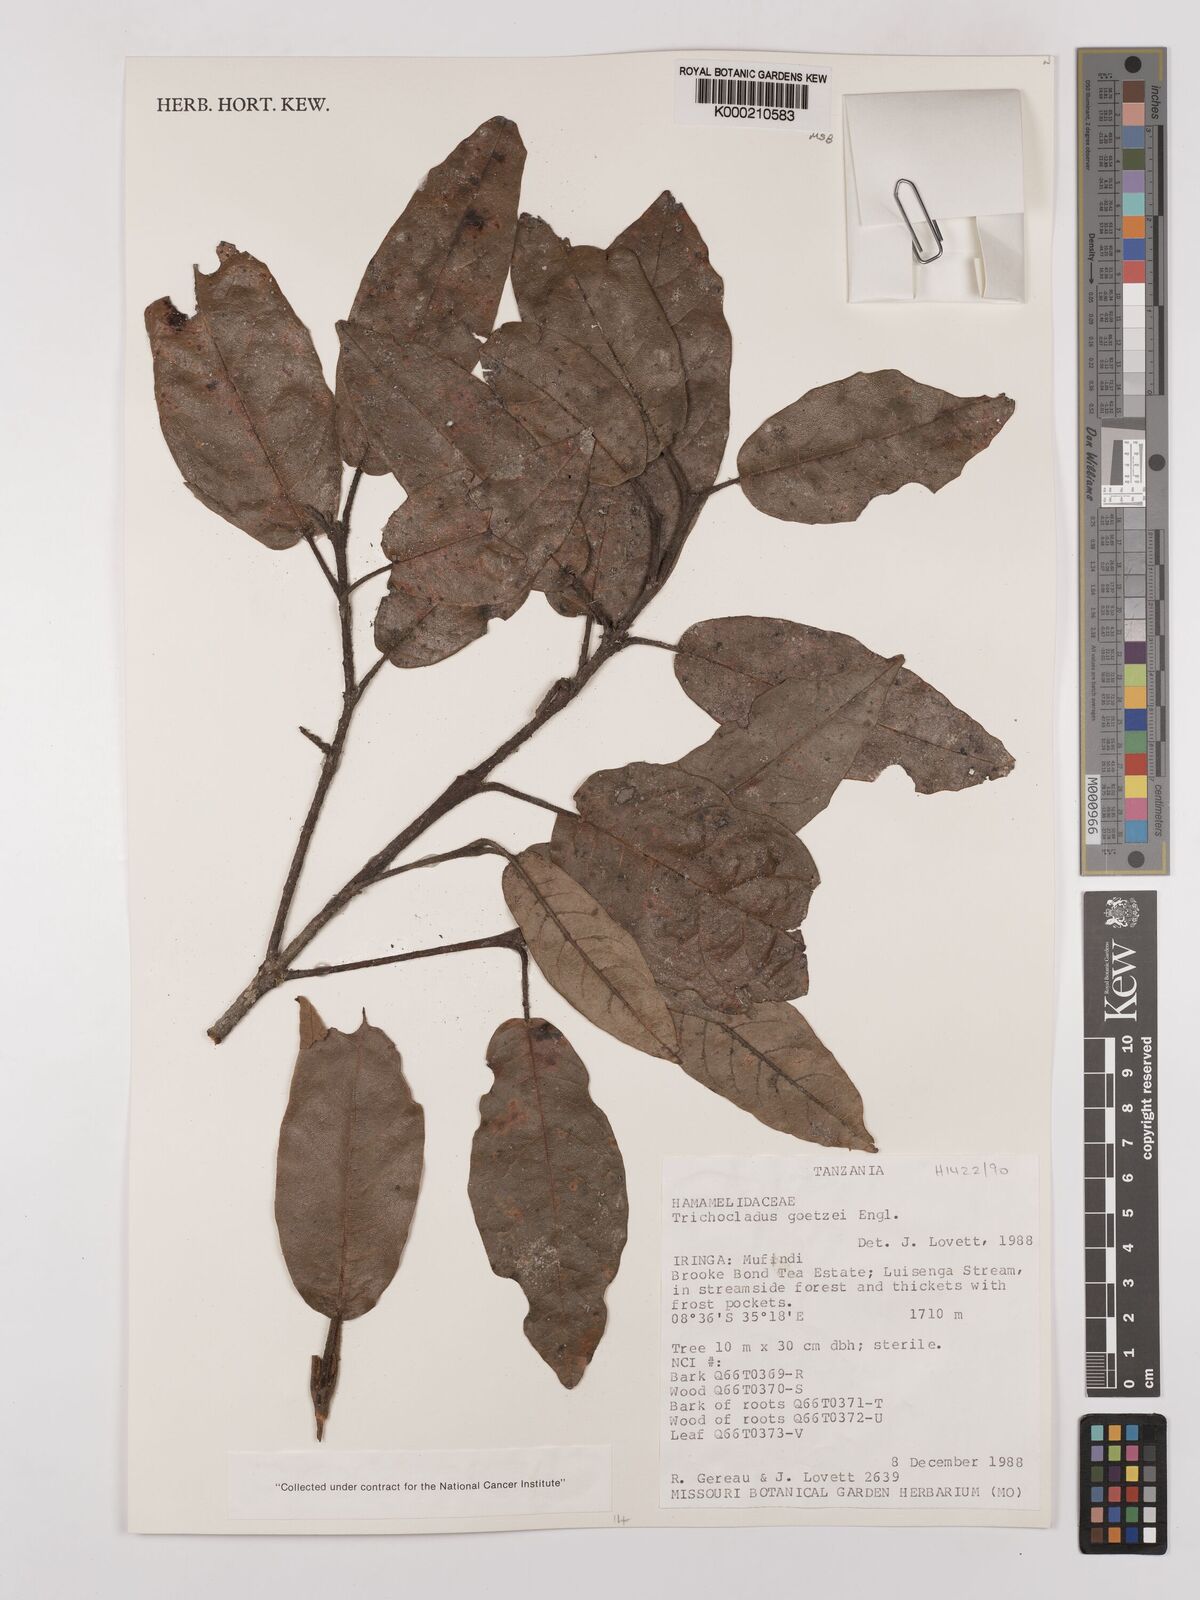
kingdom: Plantae
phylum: Tracheophyta
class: Magnoliopsida
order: Saxifragales
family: Hamamelidaceae
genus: Trichocladus
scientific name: Trichocladus goetzei
